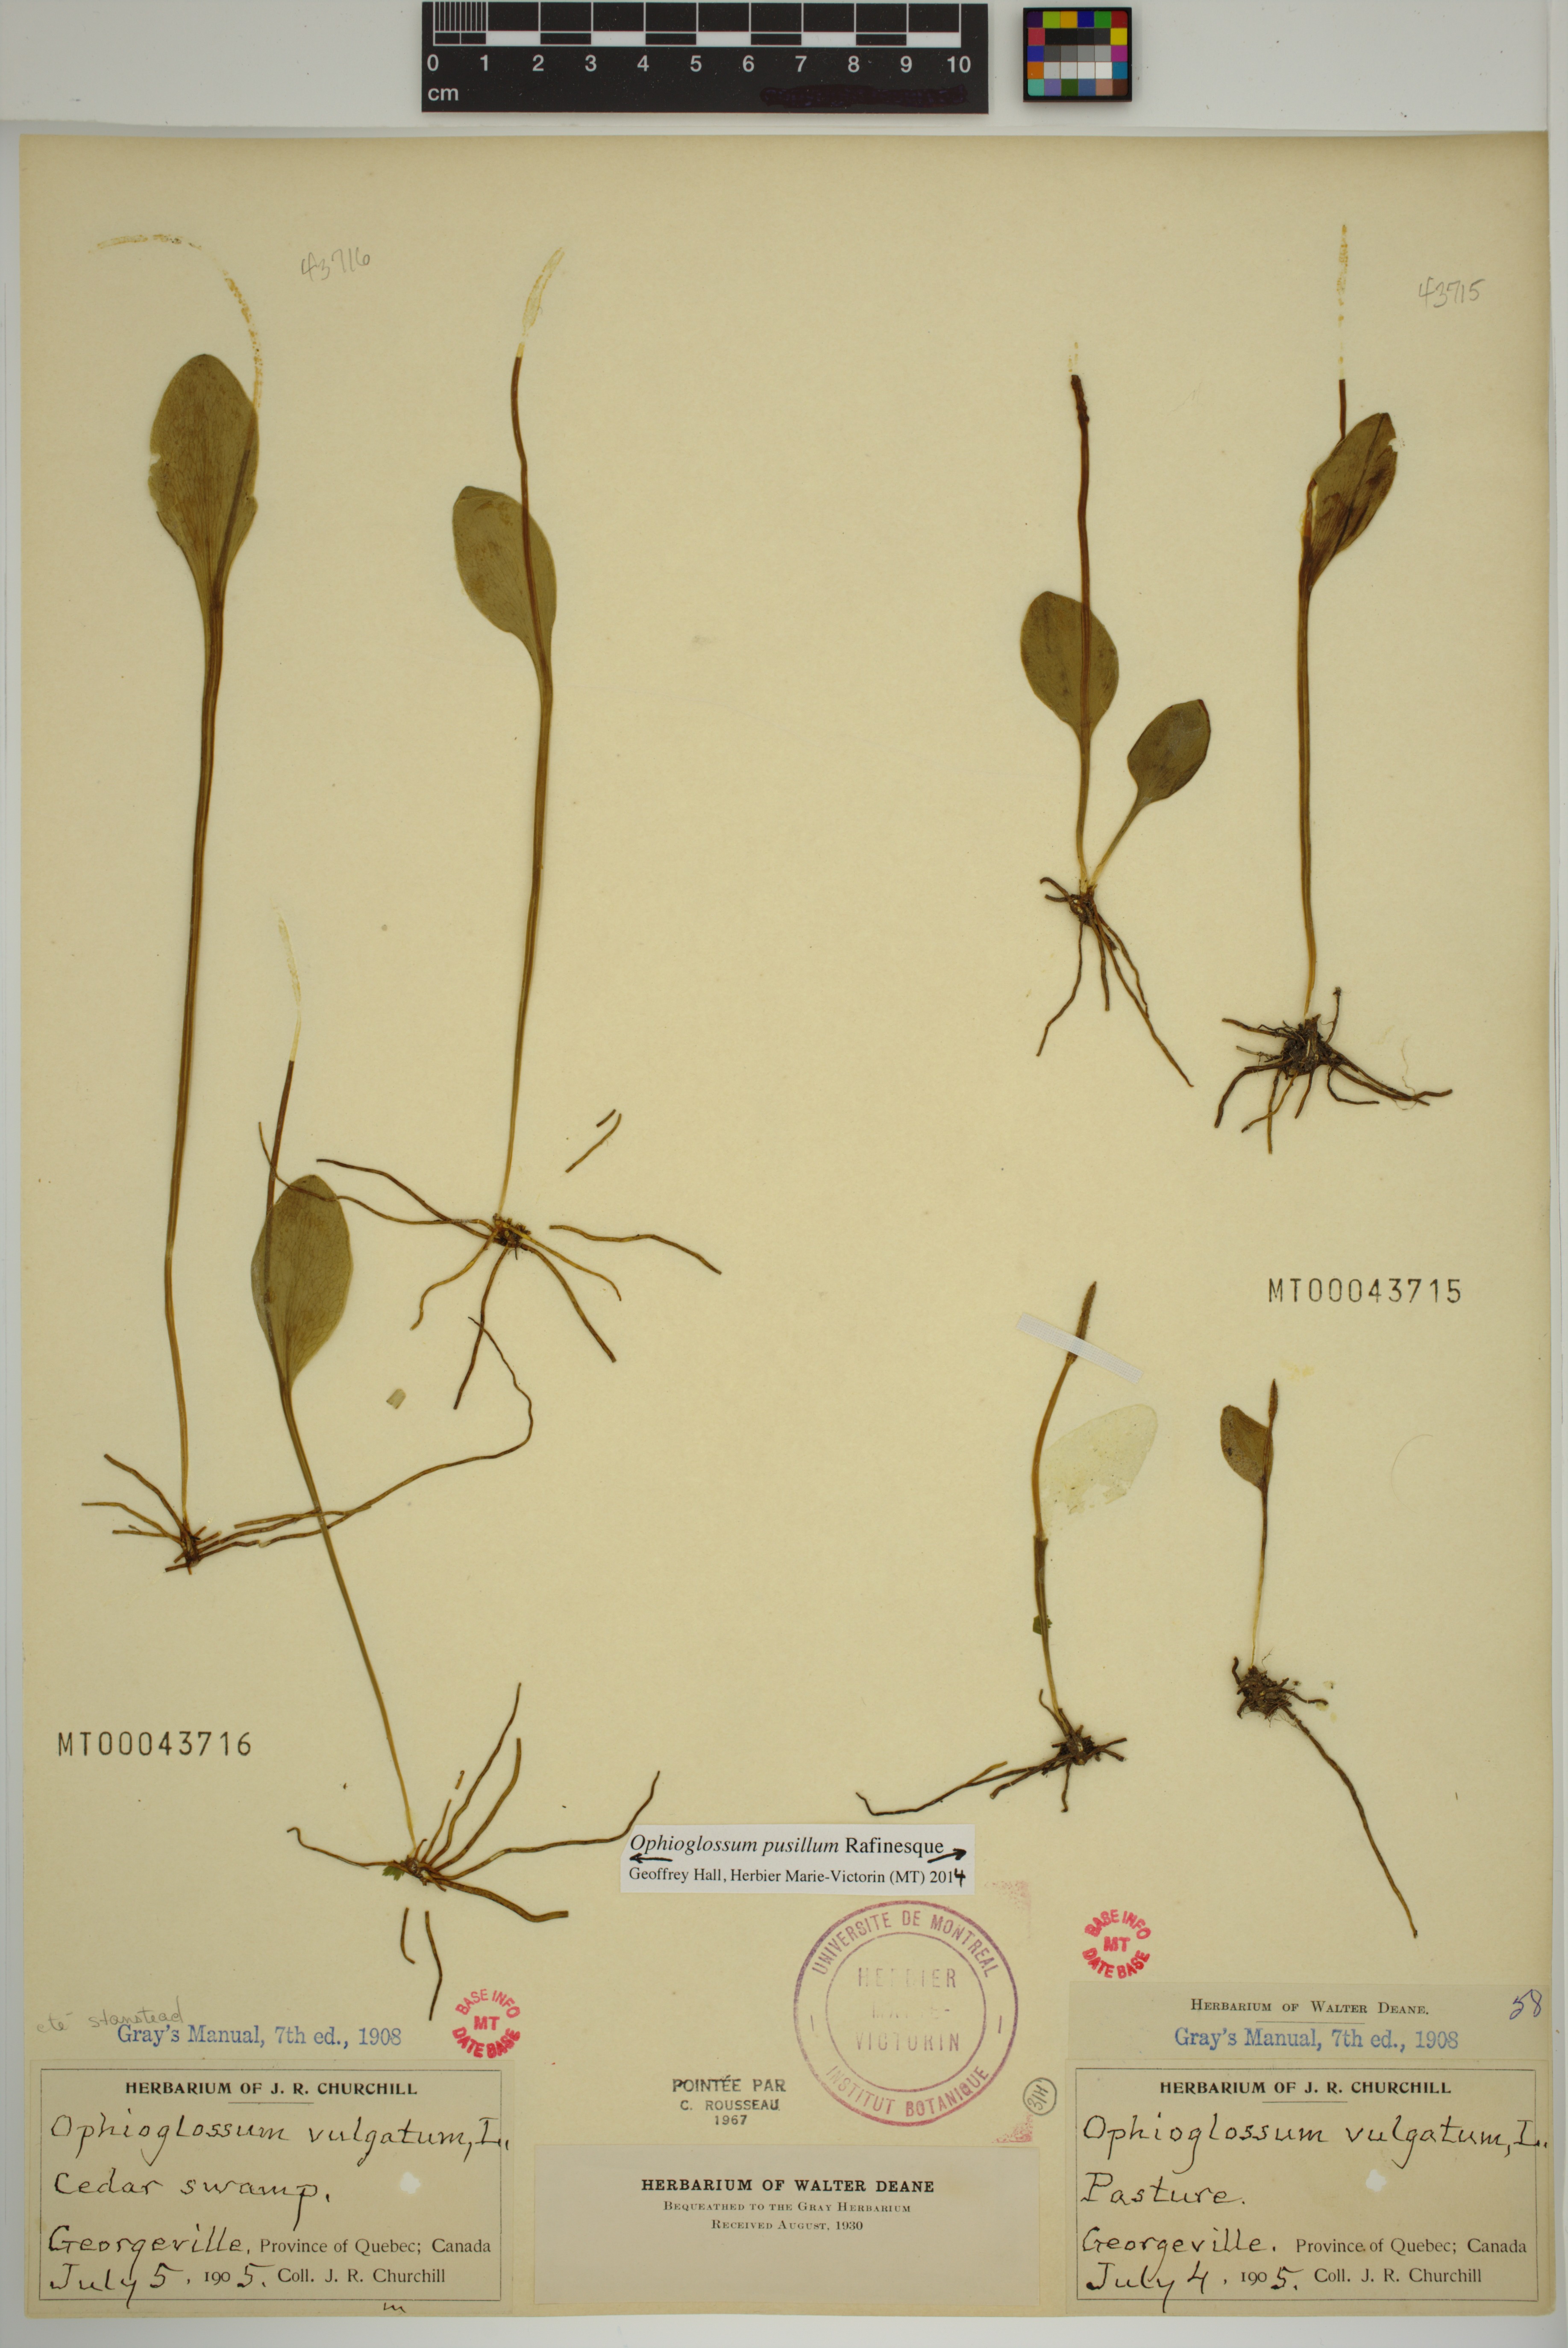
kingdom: Plantae
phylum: Tracheophyta
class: Polypodiopsida
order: Ophioglossales
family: Ophioglossaceae
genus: Ophioglossum
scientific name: Ophioglossum pusillum
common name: Northern adder's-tongue
